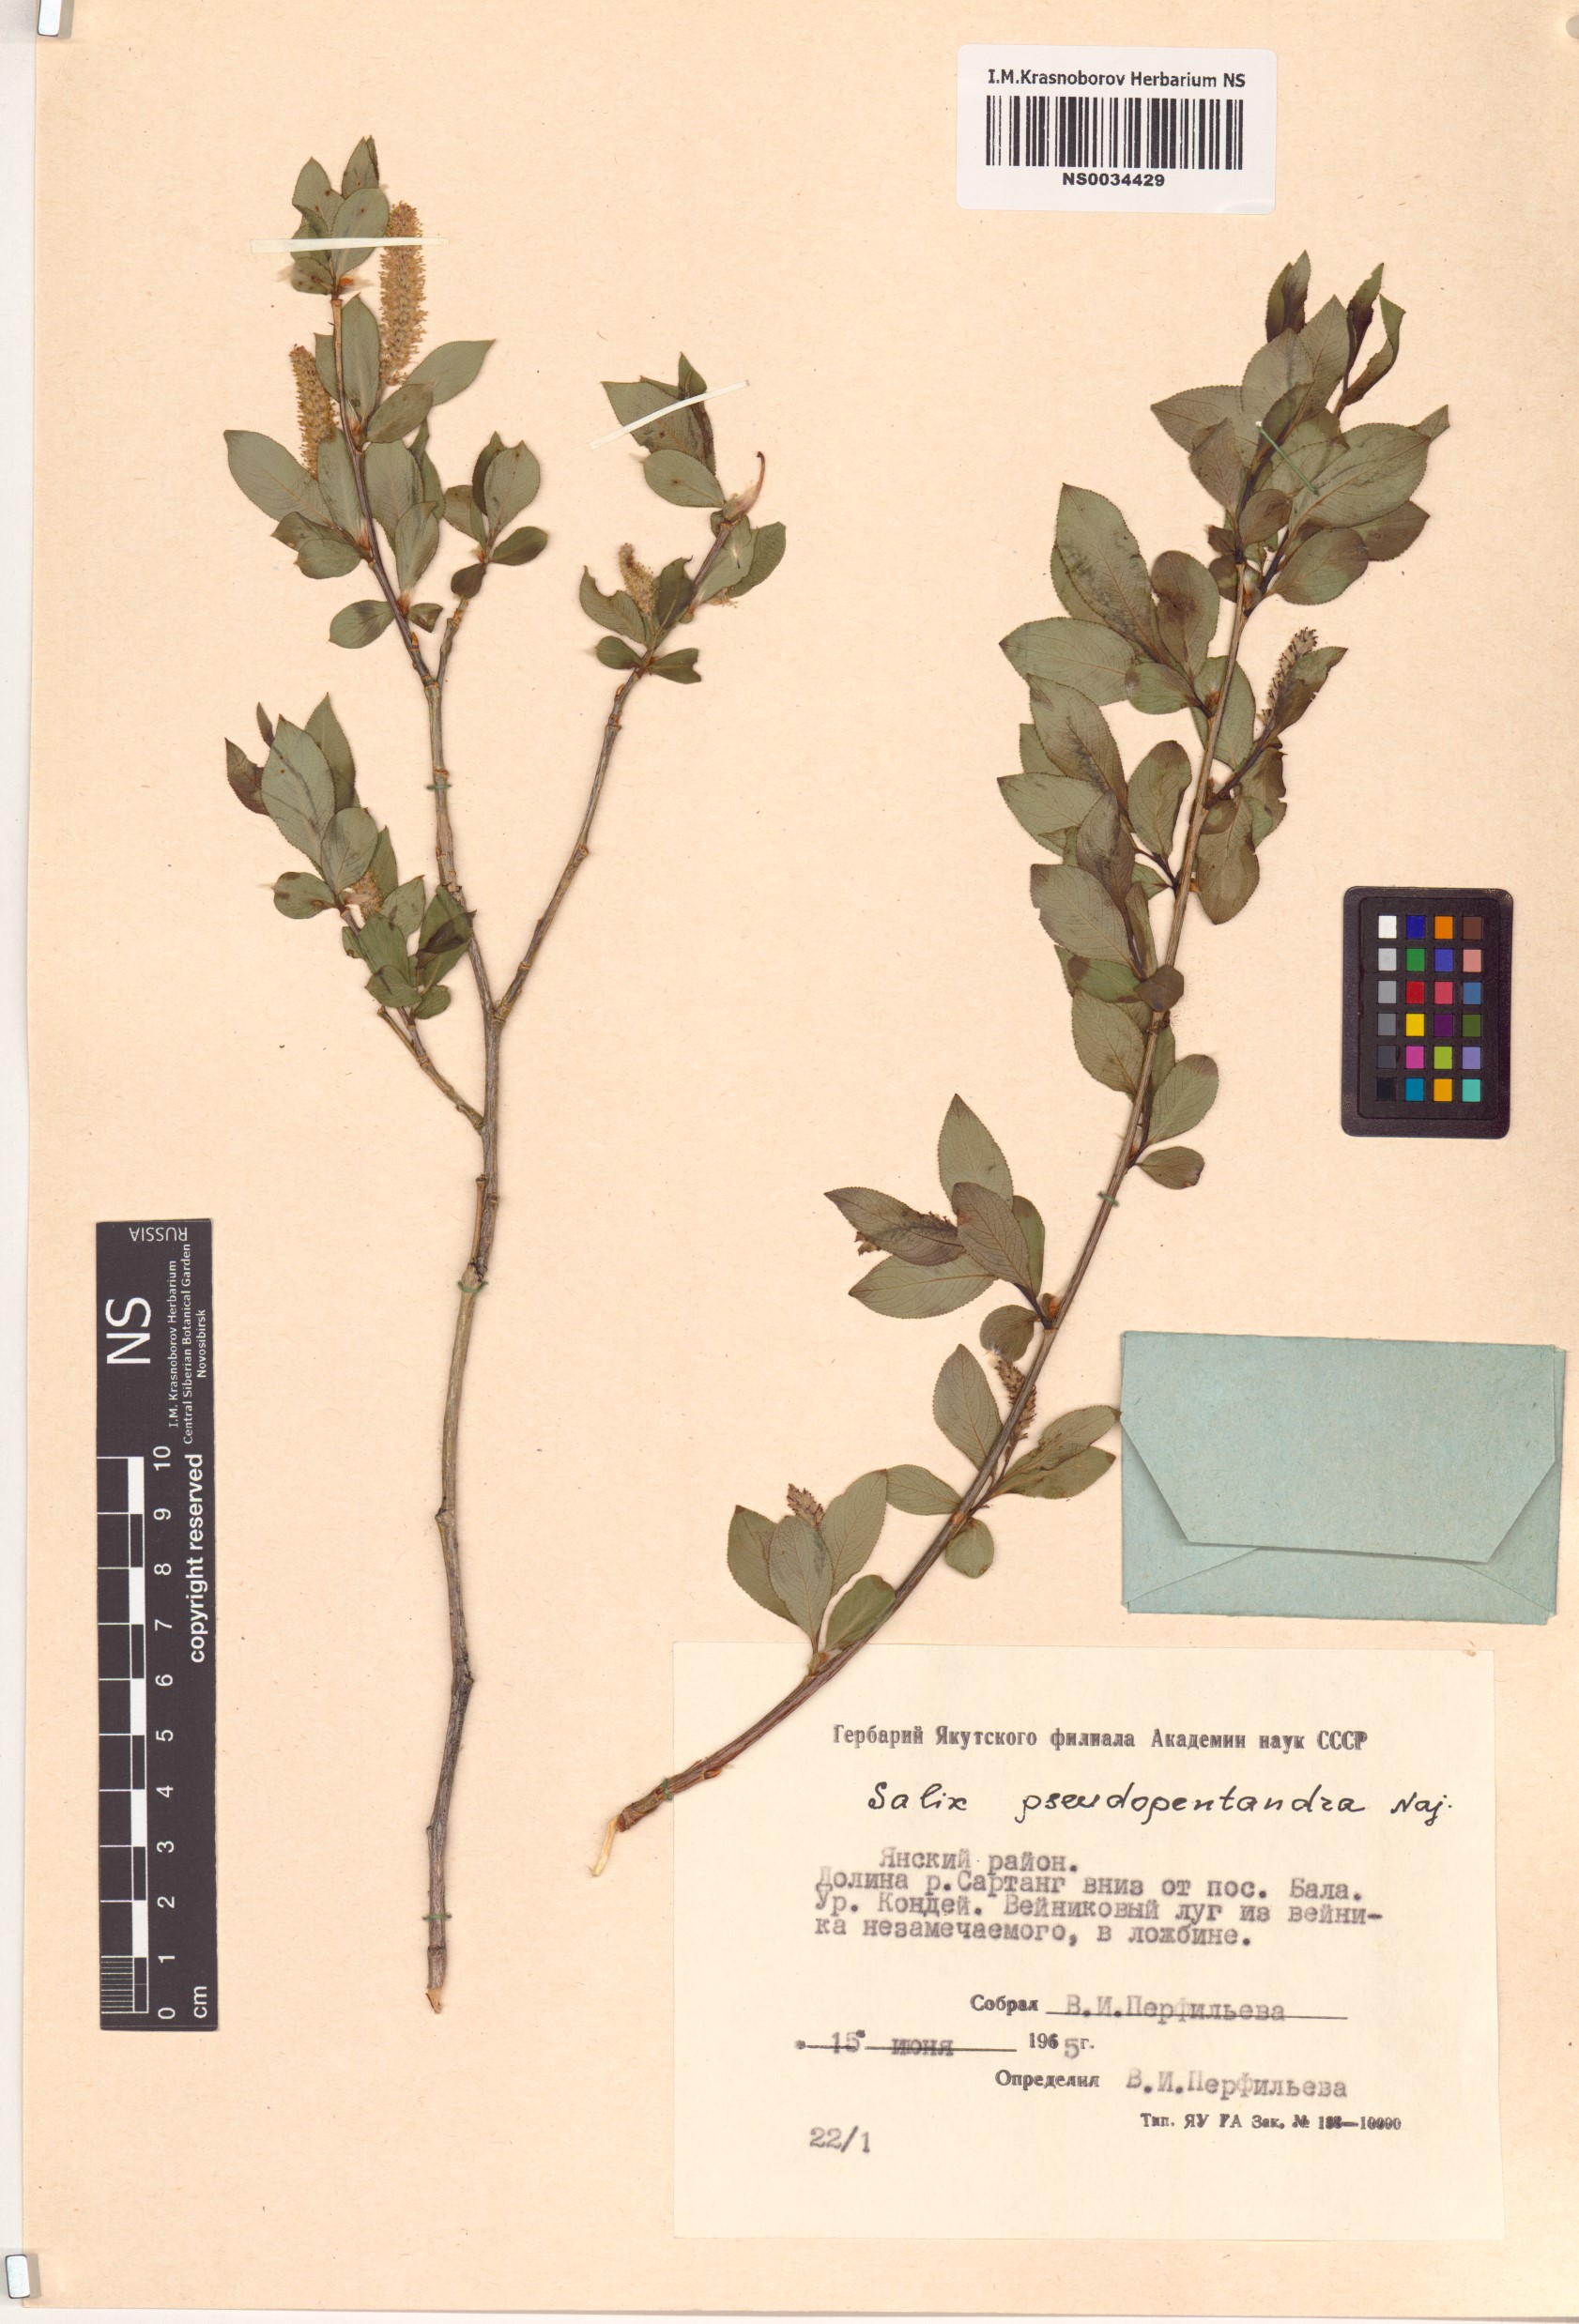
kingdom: Plantae
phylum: Tracheophyta
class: Magnoliopsida
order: Malpighiales
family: Salicaceae
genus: Salix
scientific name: Salix pseudopentandra
